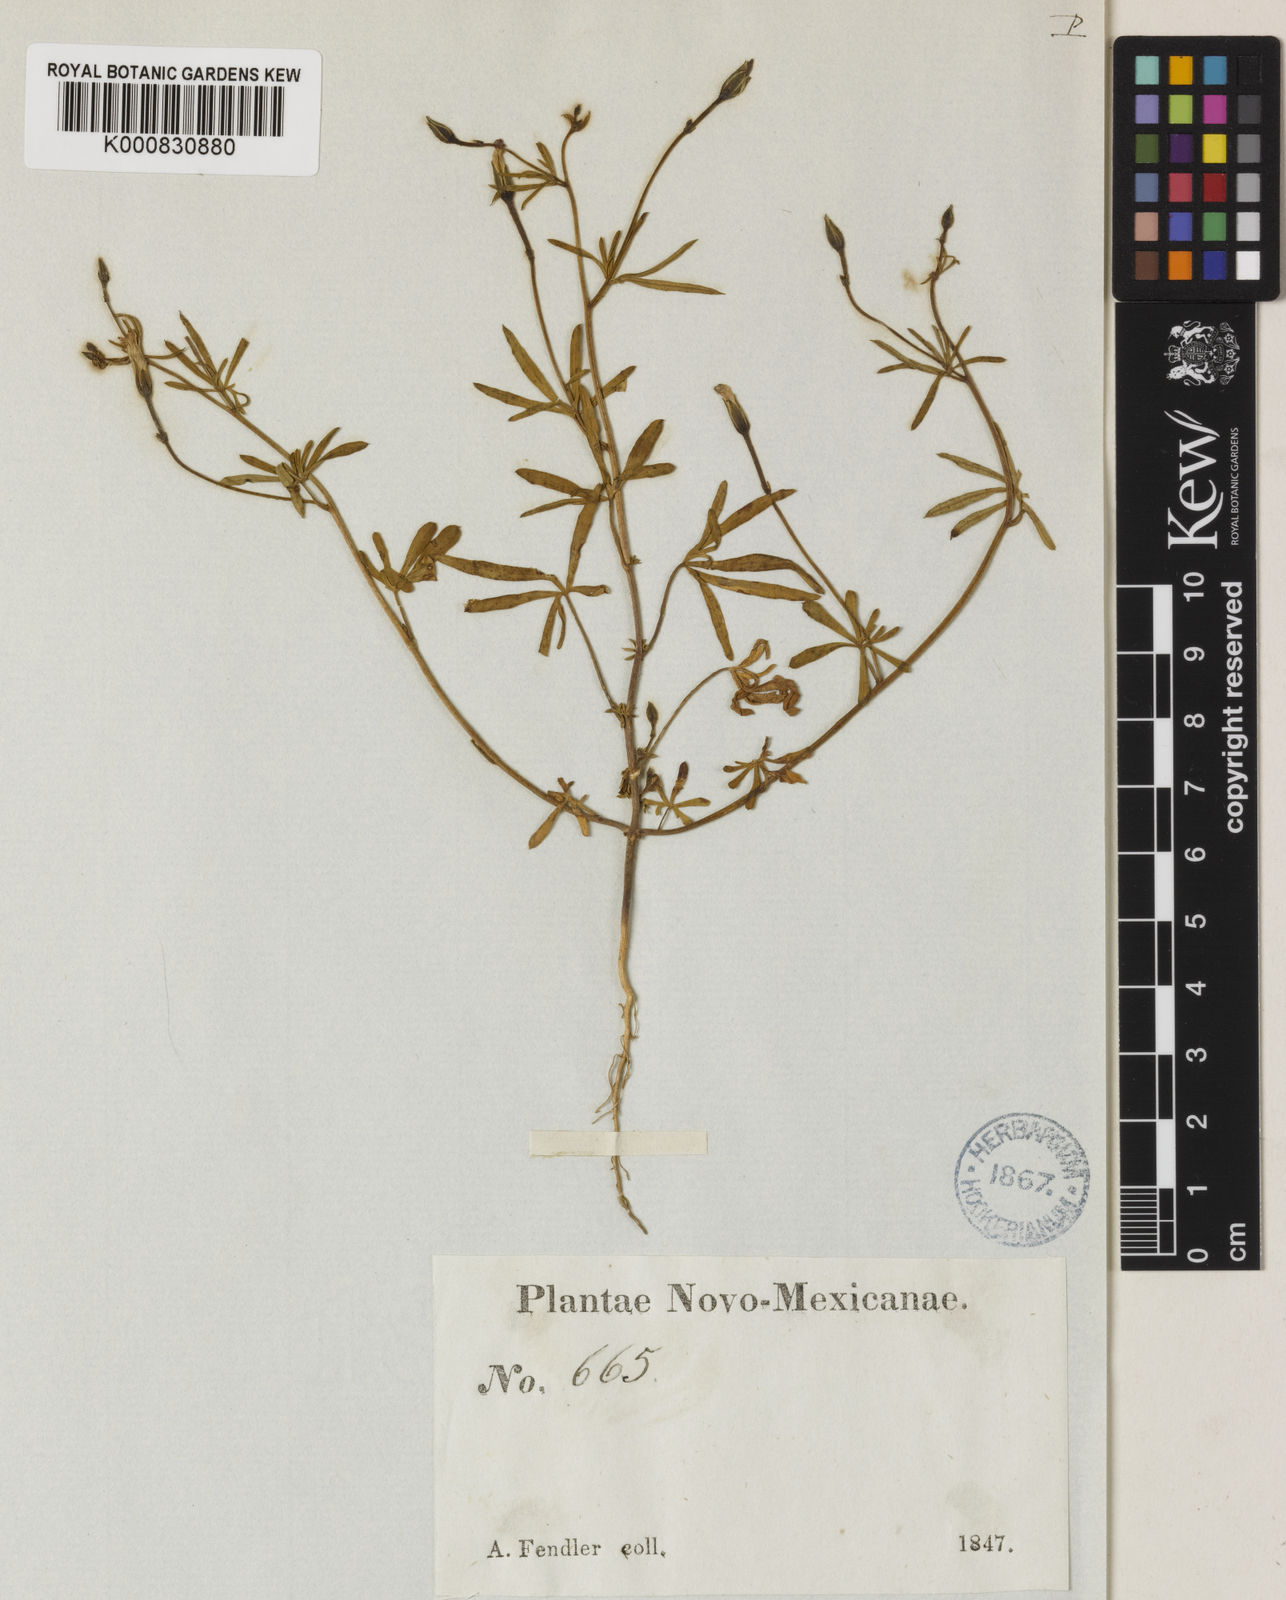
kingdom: Plantae
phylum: Tracheophyta
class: Magnoliopsida
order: Solanales
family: Convolvulaceae
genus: Ipomoea
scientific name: Ipomoea ternifolia
